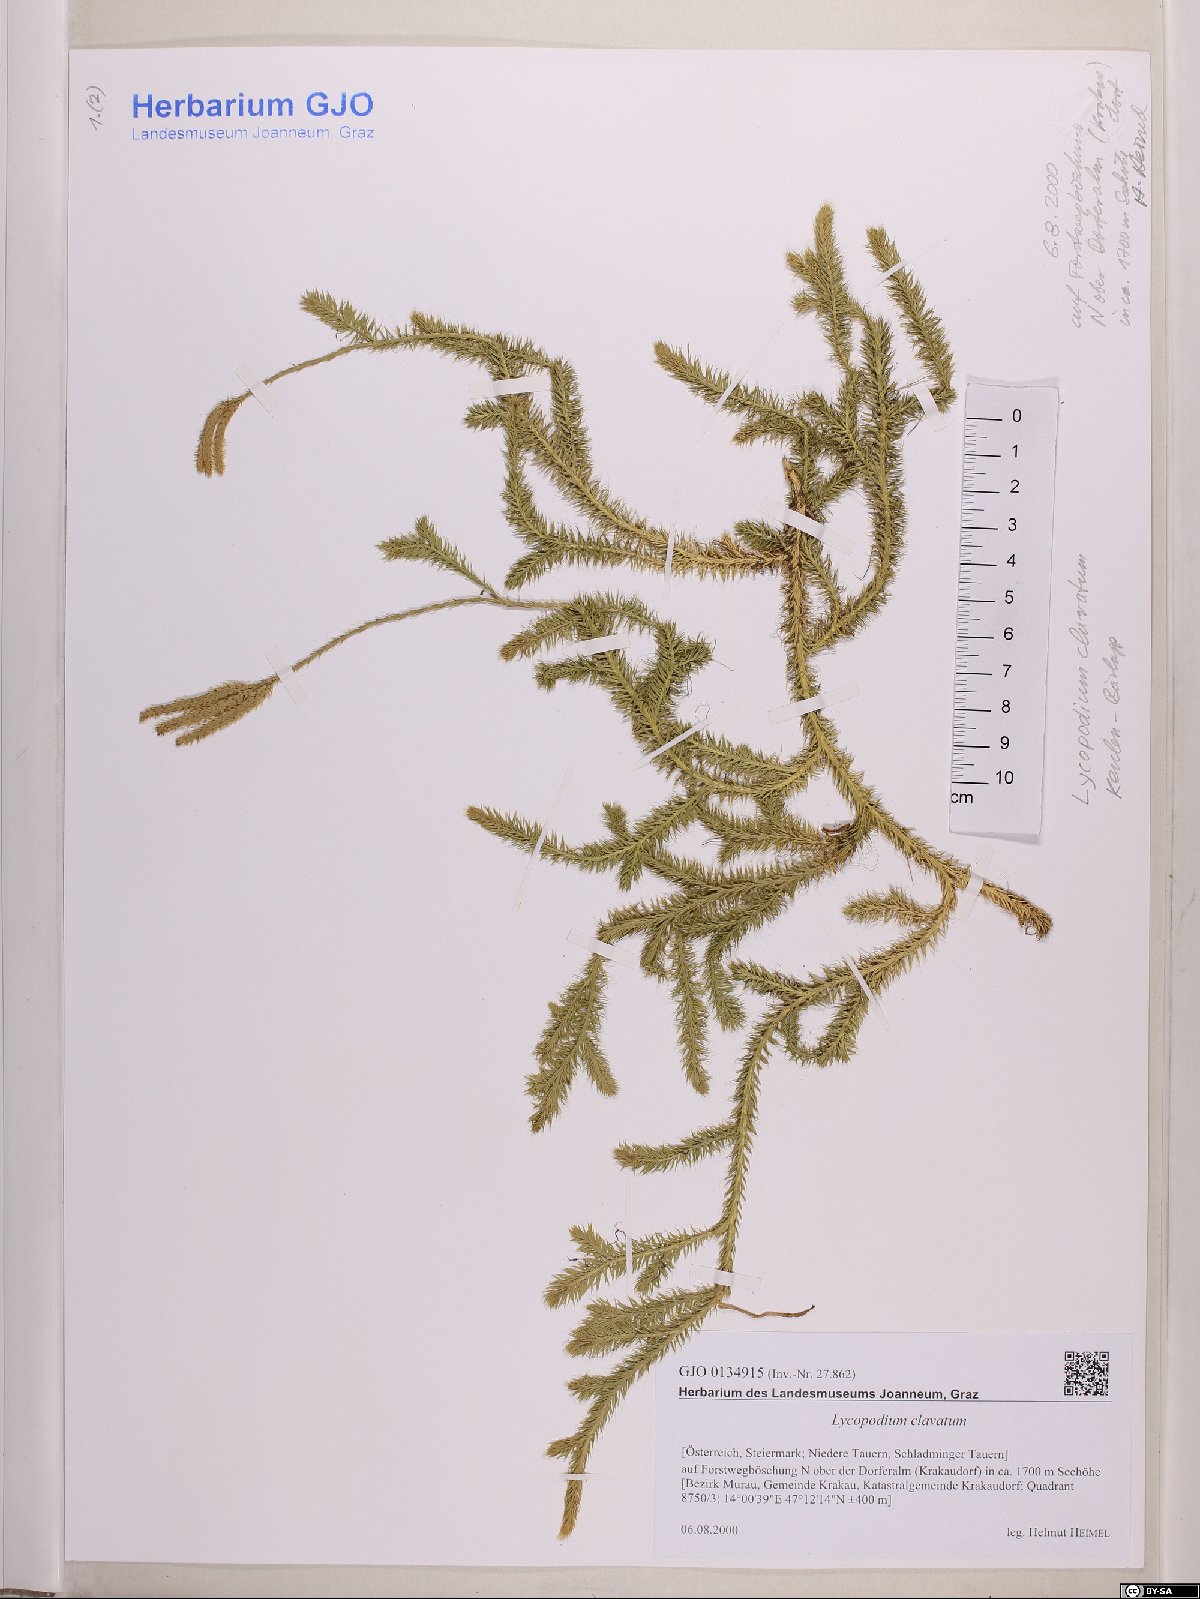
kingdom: Plantae
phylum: Tracheophyta
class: Lycopodiopsida
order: Lycopodiales
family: Lycopodiaceae
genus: Lycopodium
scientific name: Lycopodium clavatum
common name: Stag's-horn clubmoss
